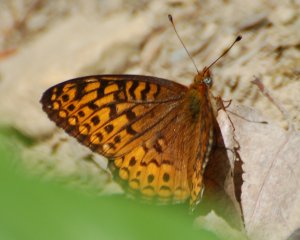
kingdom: Animalia
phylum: Arthropoda
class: Insecta
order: Lepidoptera
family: Nymphalidae
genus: Speyeria
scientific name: Speyeria atlantis
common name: Atlantis Fritillary
